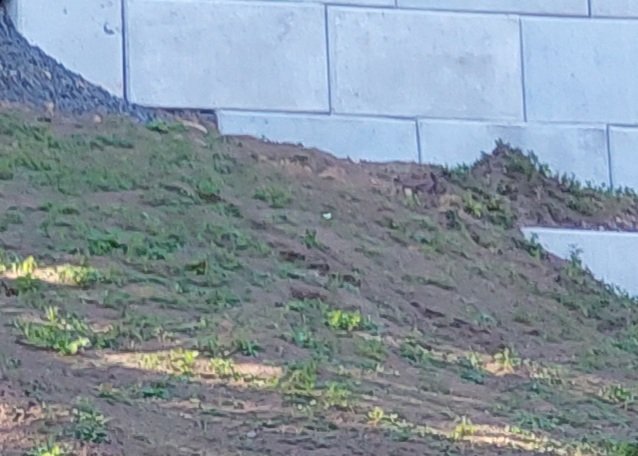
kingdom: Animalia
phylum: Arthropoda
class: Insecta
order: Lepidoptera
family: Pieridae
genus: Pieris
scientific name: Pieris rapae
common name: Cabbage White
